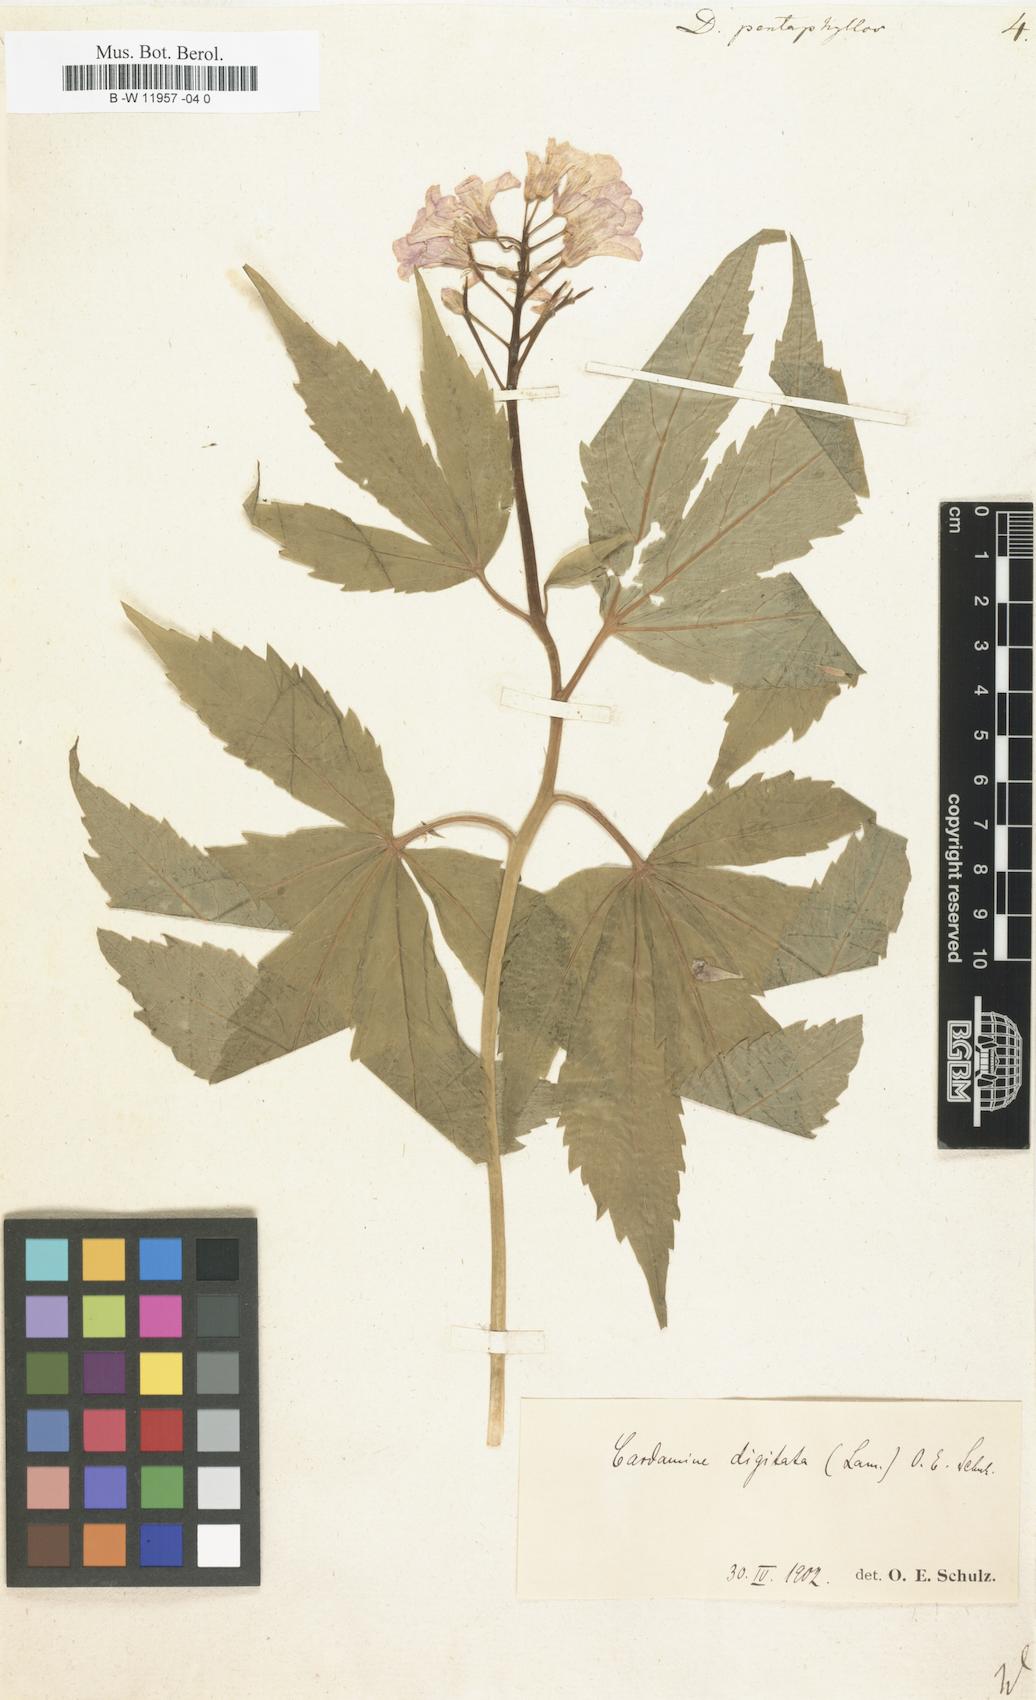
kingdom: Plantae
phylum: Tracheophyta
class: Magnoliopsida
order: Brassicales
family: Brassicaceae
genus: Cardamine
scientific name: Cardamine pentaphyllos
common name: Five-leaflet bitter-cress
